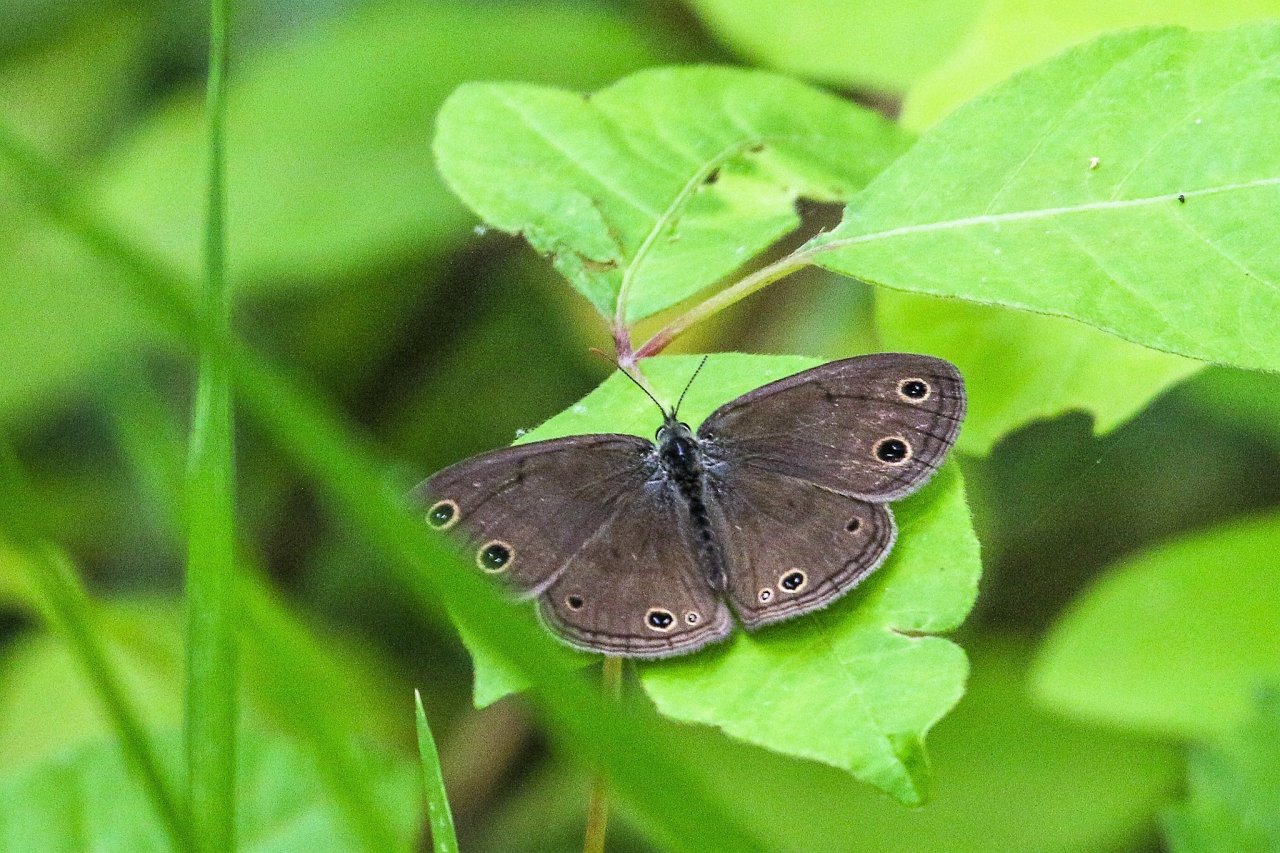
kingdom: Animalia
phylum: Arthropoda
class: Insecta
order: Lepidoptera
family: Nymphalidae
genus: Euptychia
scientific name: Euptychia cymela
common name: Little Wood Satyr
